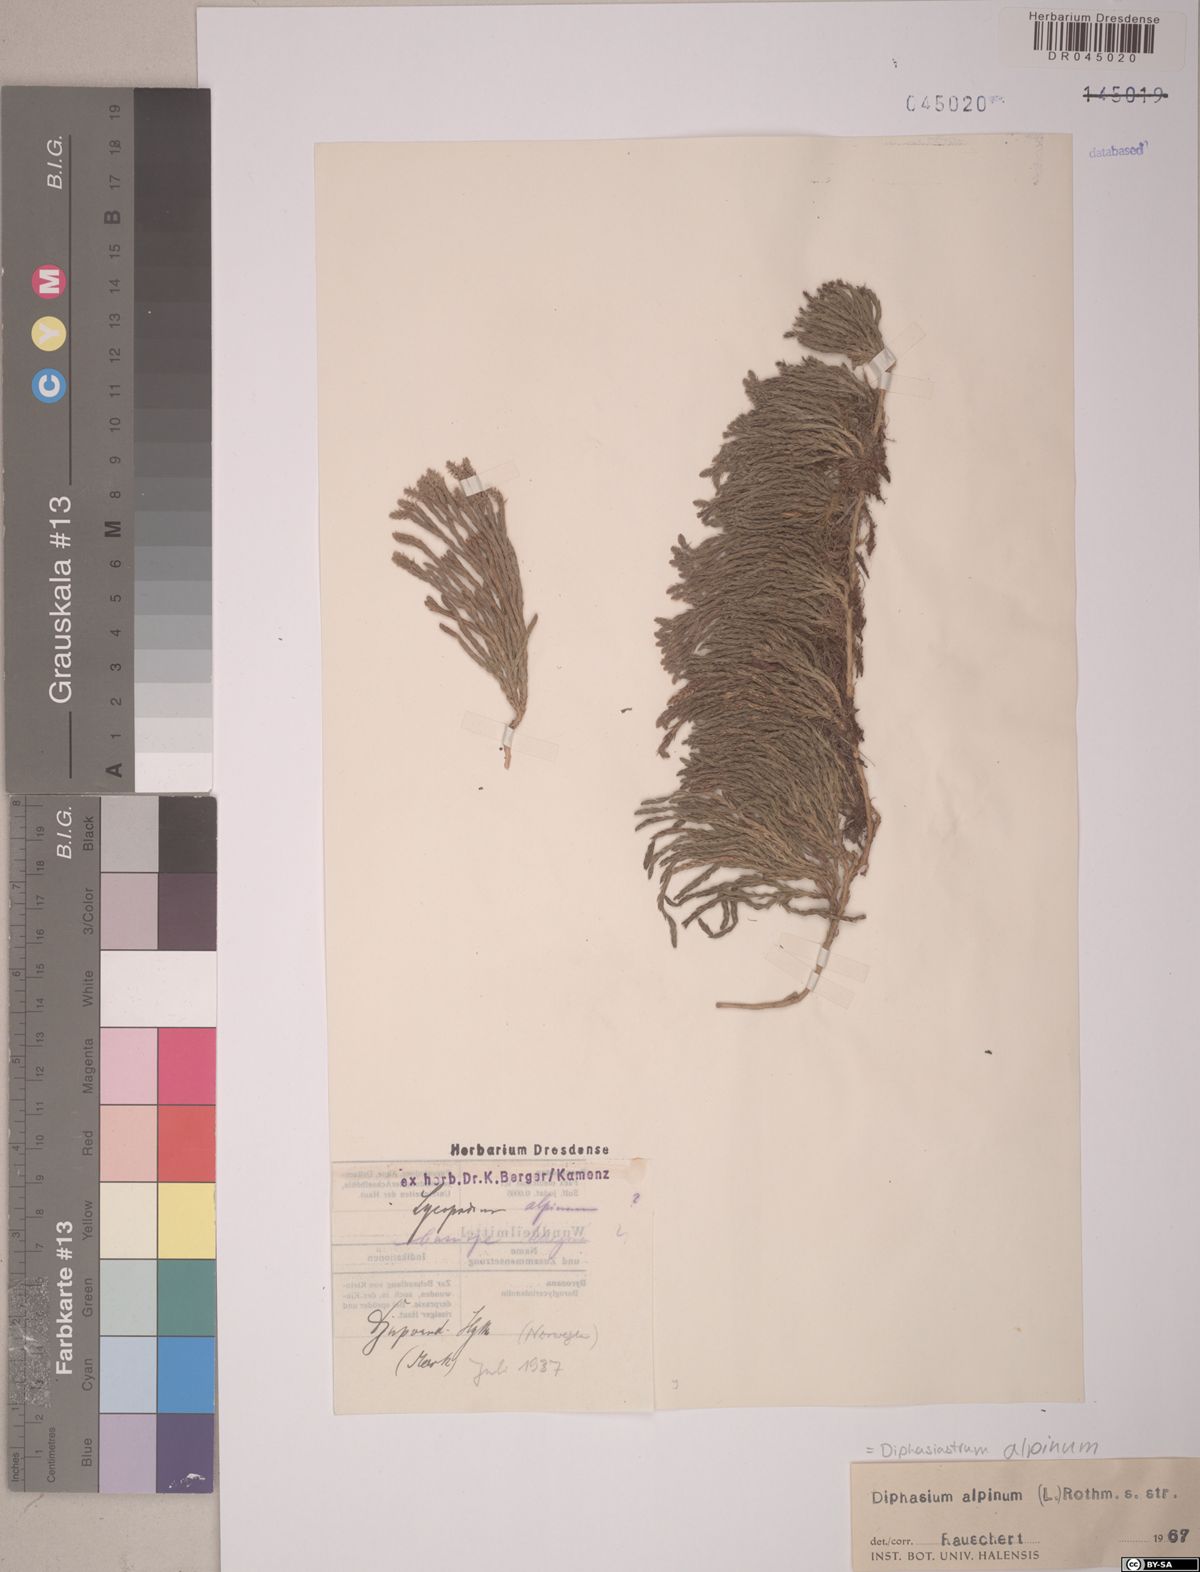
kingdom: Plantae
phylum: Tracheophyta
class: Lycopodiopsida
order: Lycopodiales
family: Lycopodiaceae
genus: Diphasiastrum
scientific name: Diphasiastrum alpinum
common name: Alpine clubmoss
